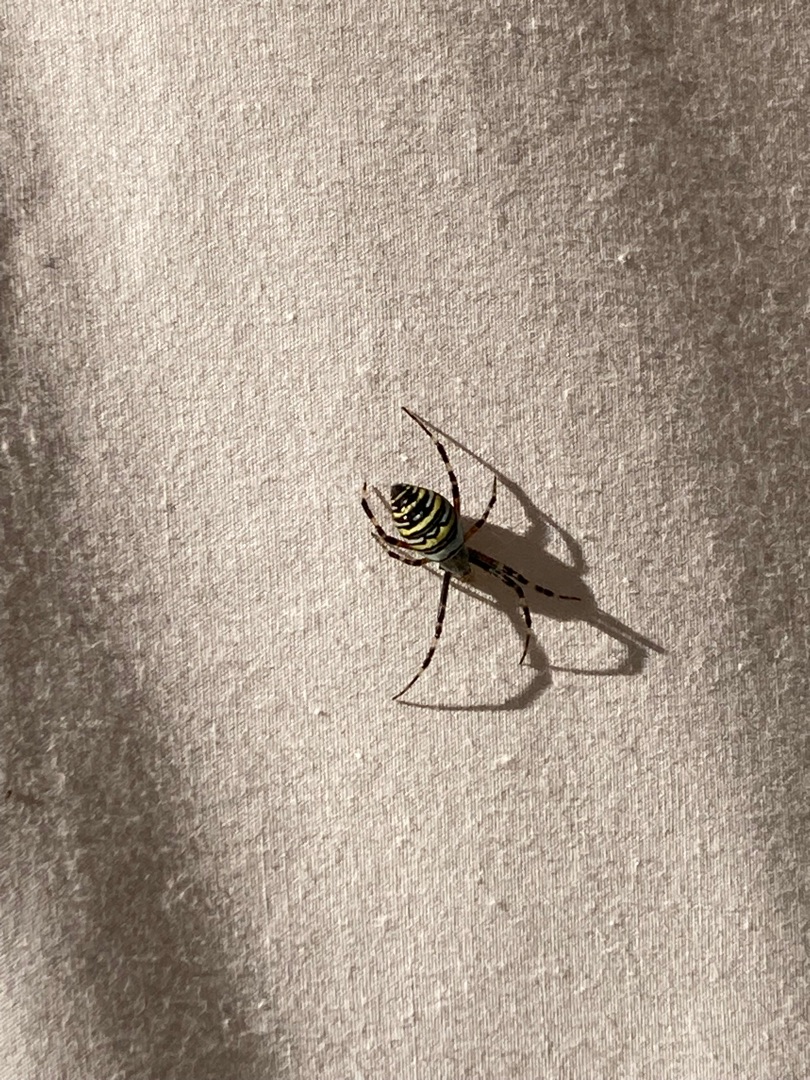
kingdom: Animalia
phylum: Arthropoda
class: Arachnida
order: Araneae
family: Araneidae
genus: Argiope
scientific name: Argiope bruennichi
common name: Hvepseedderkop
